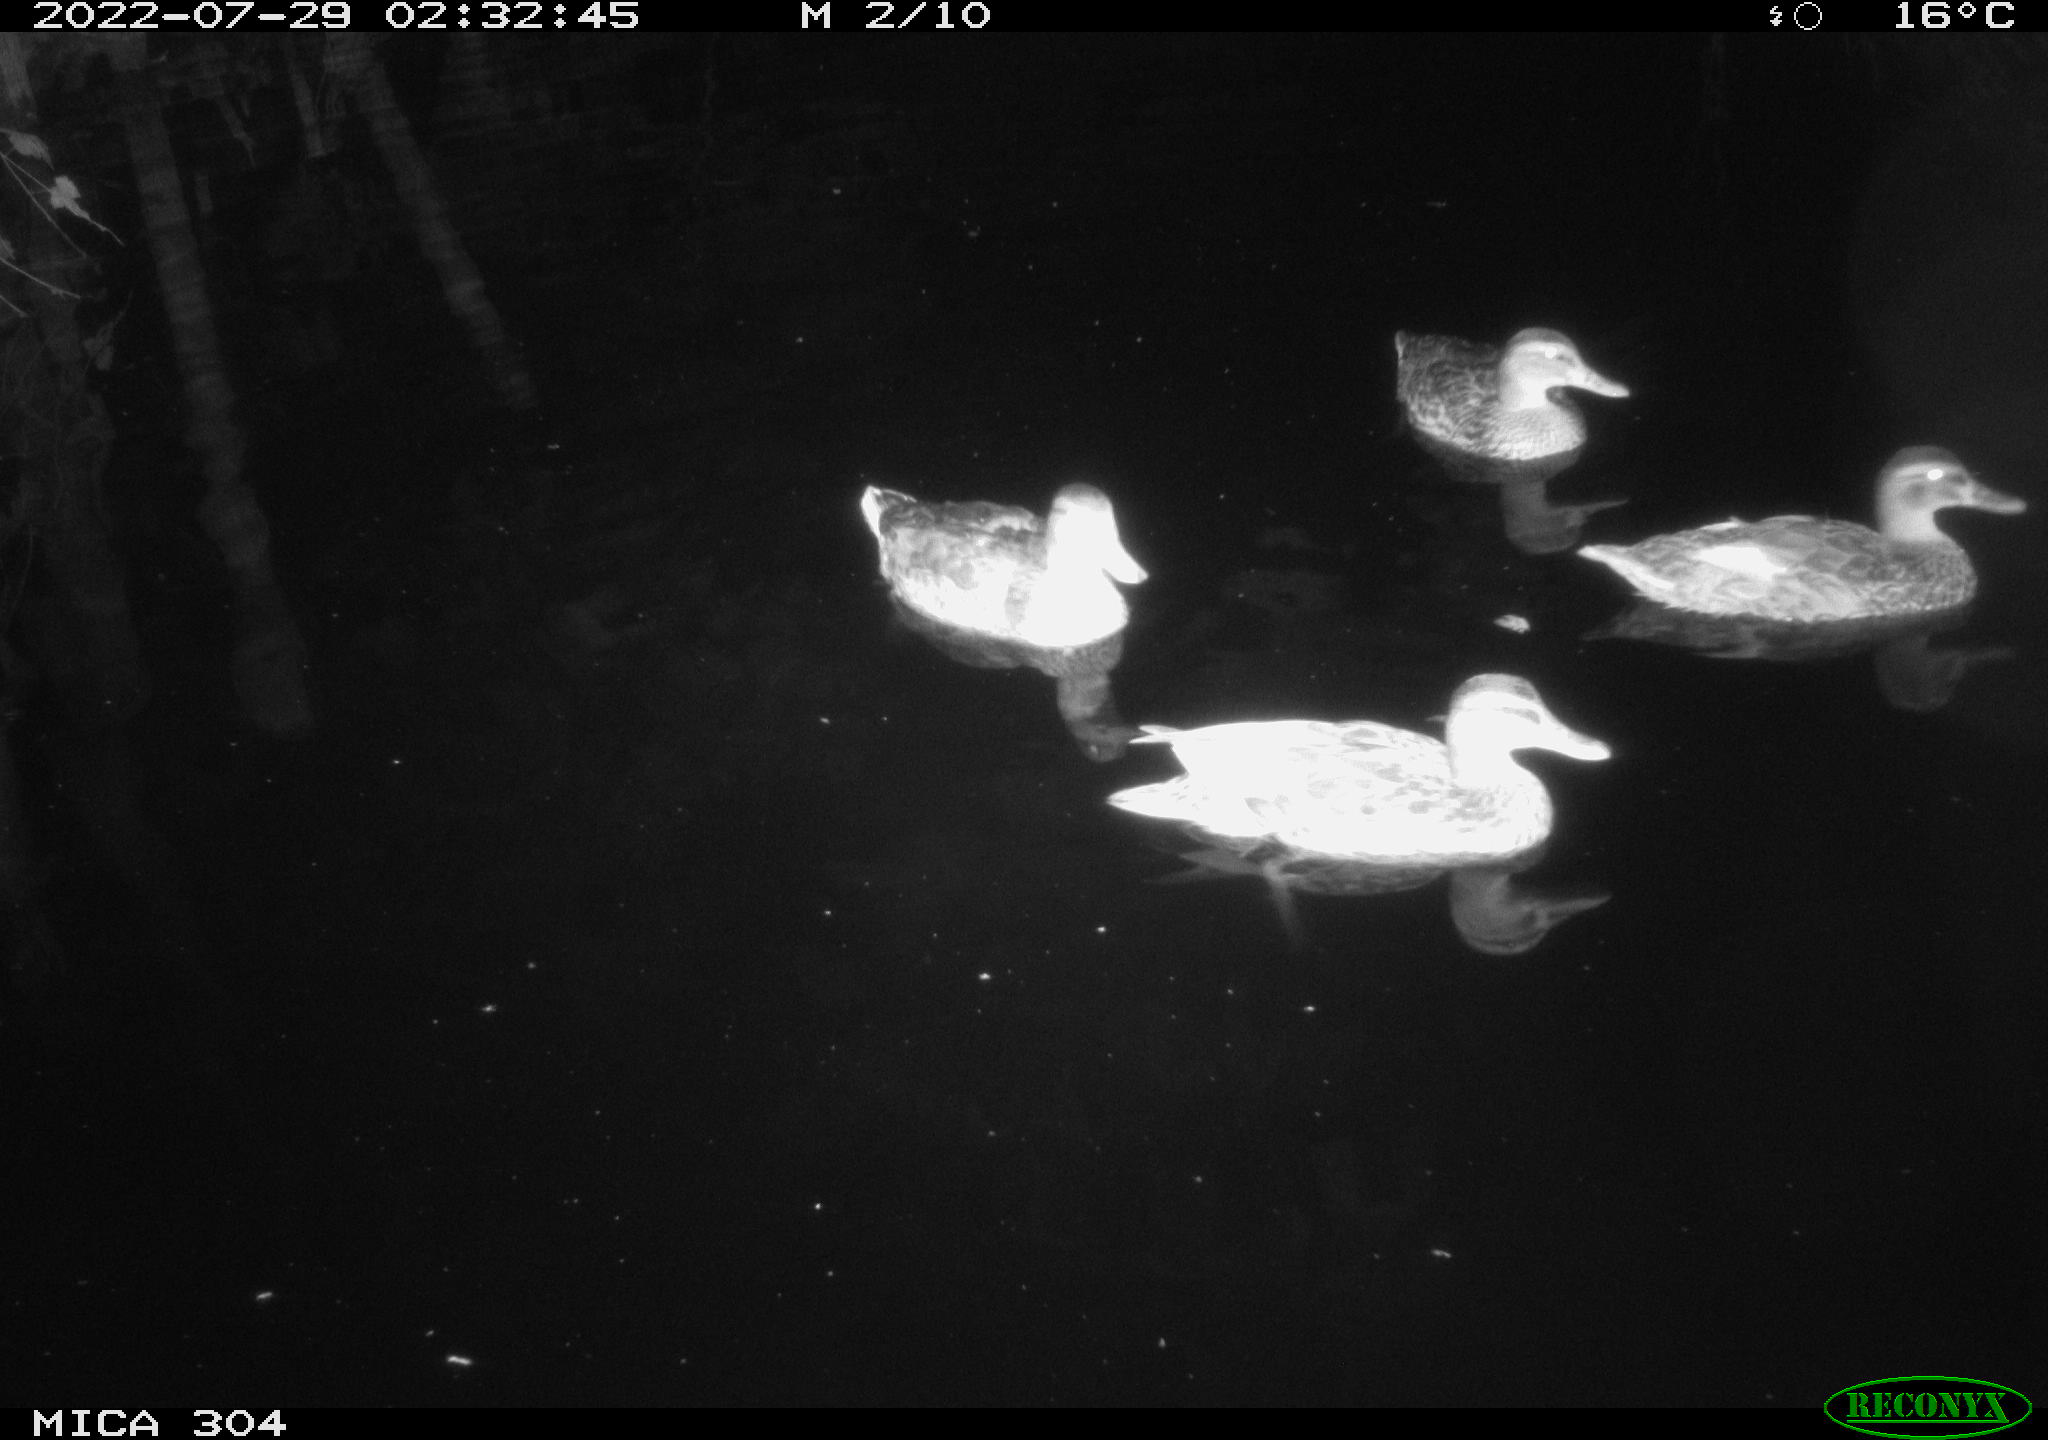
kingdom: Animalia
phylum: Chordata
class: Aves
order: Anseriformes
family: Anatidae
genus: Anas
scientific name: Anas platyrhynchos
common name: Mallard
